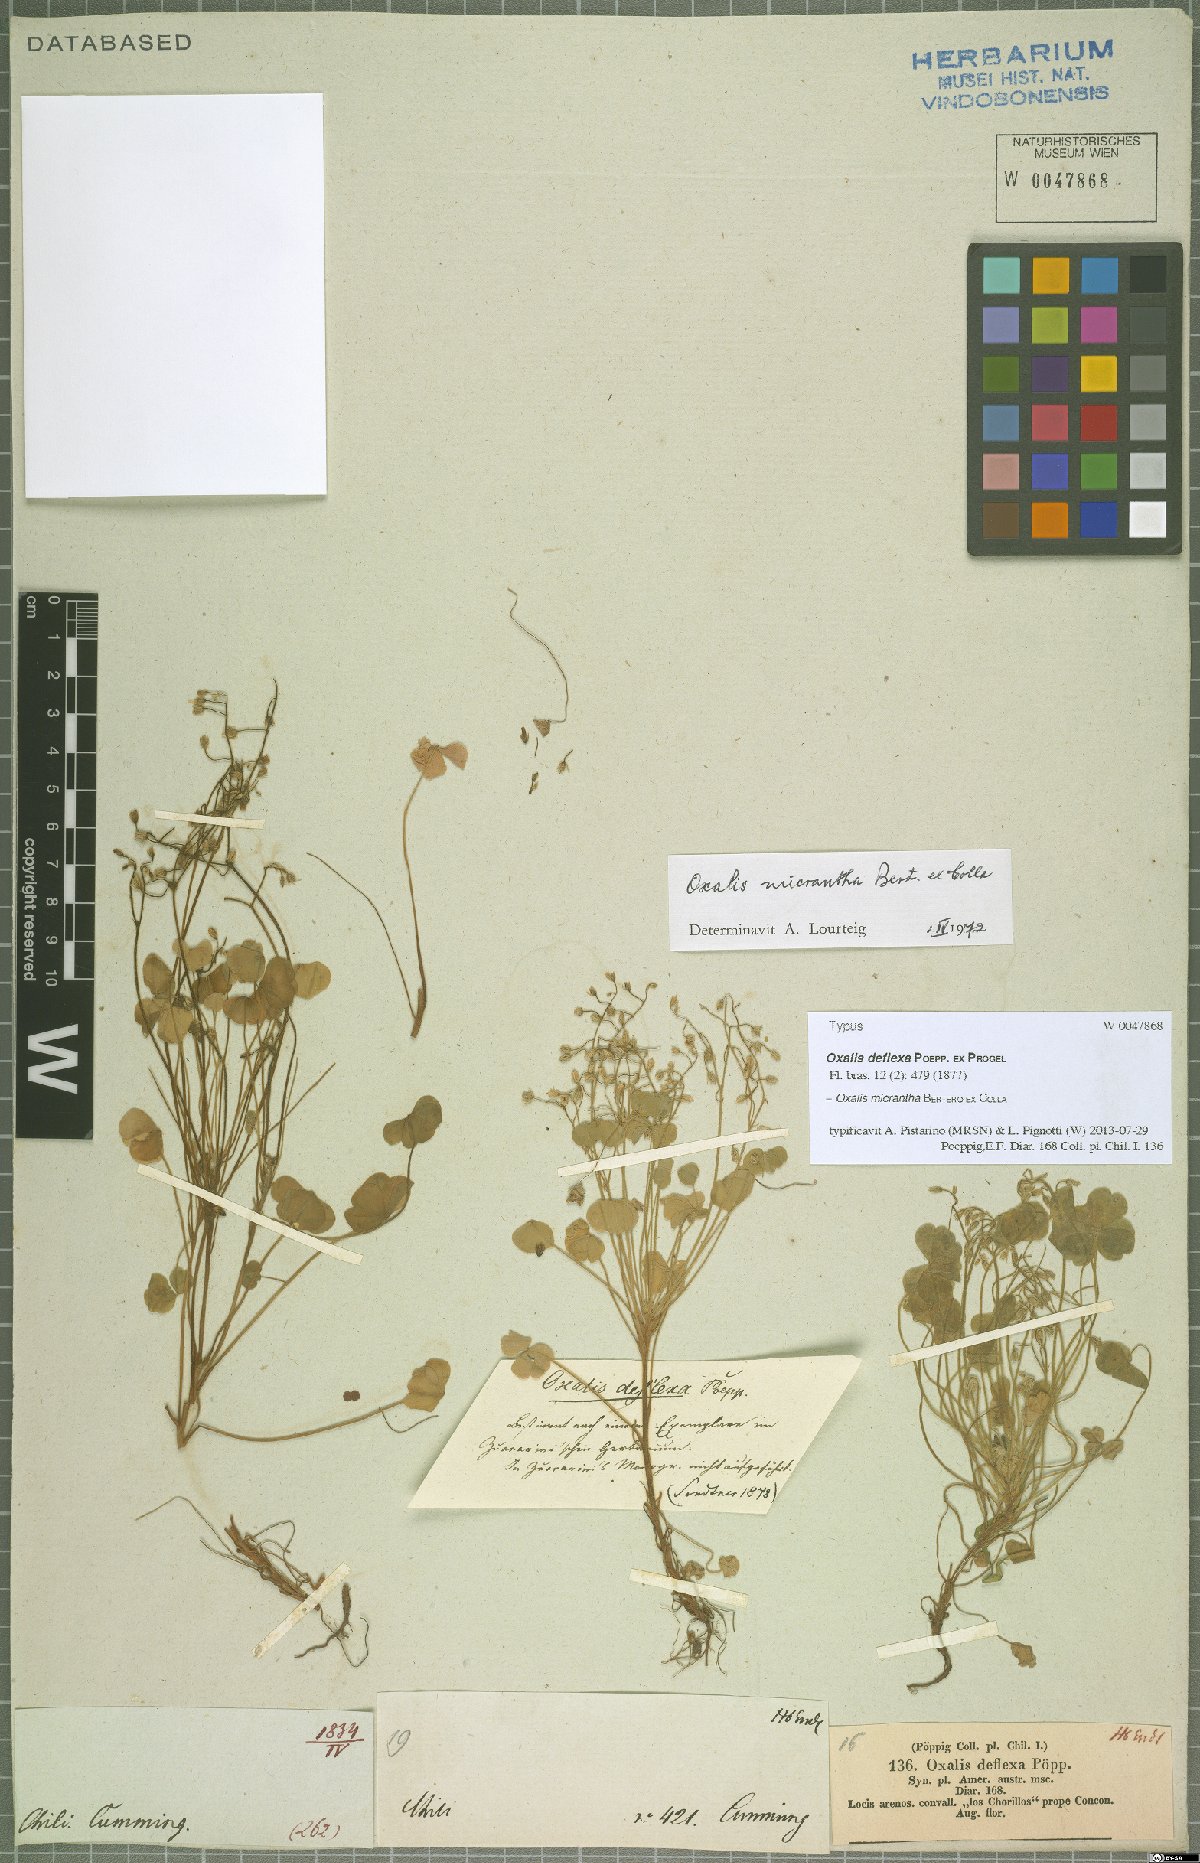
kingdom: Plantae
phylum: Tracheophyta
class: Magnoliopsida
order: Oxalidales
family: Oxalidaceae
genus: Oxalis
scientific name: Oxalis micrantha
